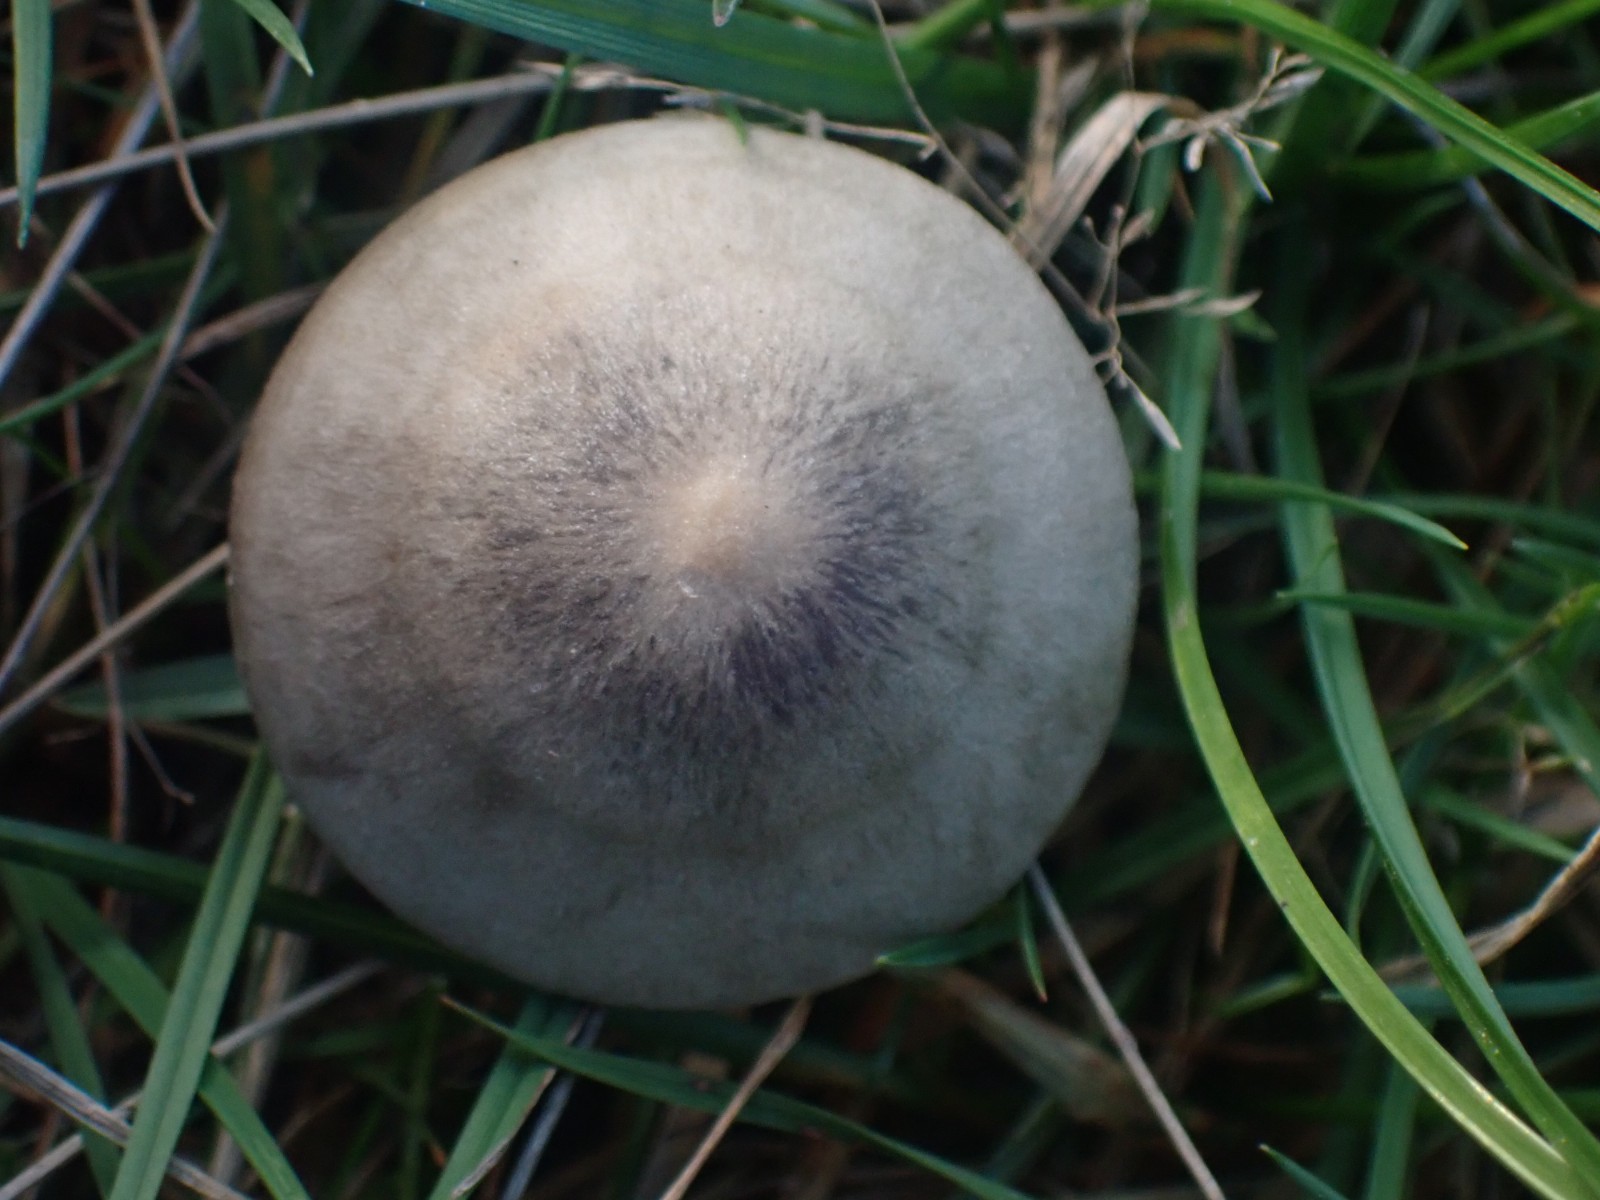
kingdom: Fungi
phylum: Basidiomycota
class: Agaricomycetes
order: Agaricales
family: Entolomataceae
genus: Entoloma
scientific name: Entoloma
